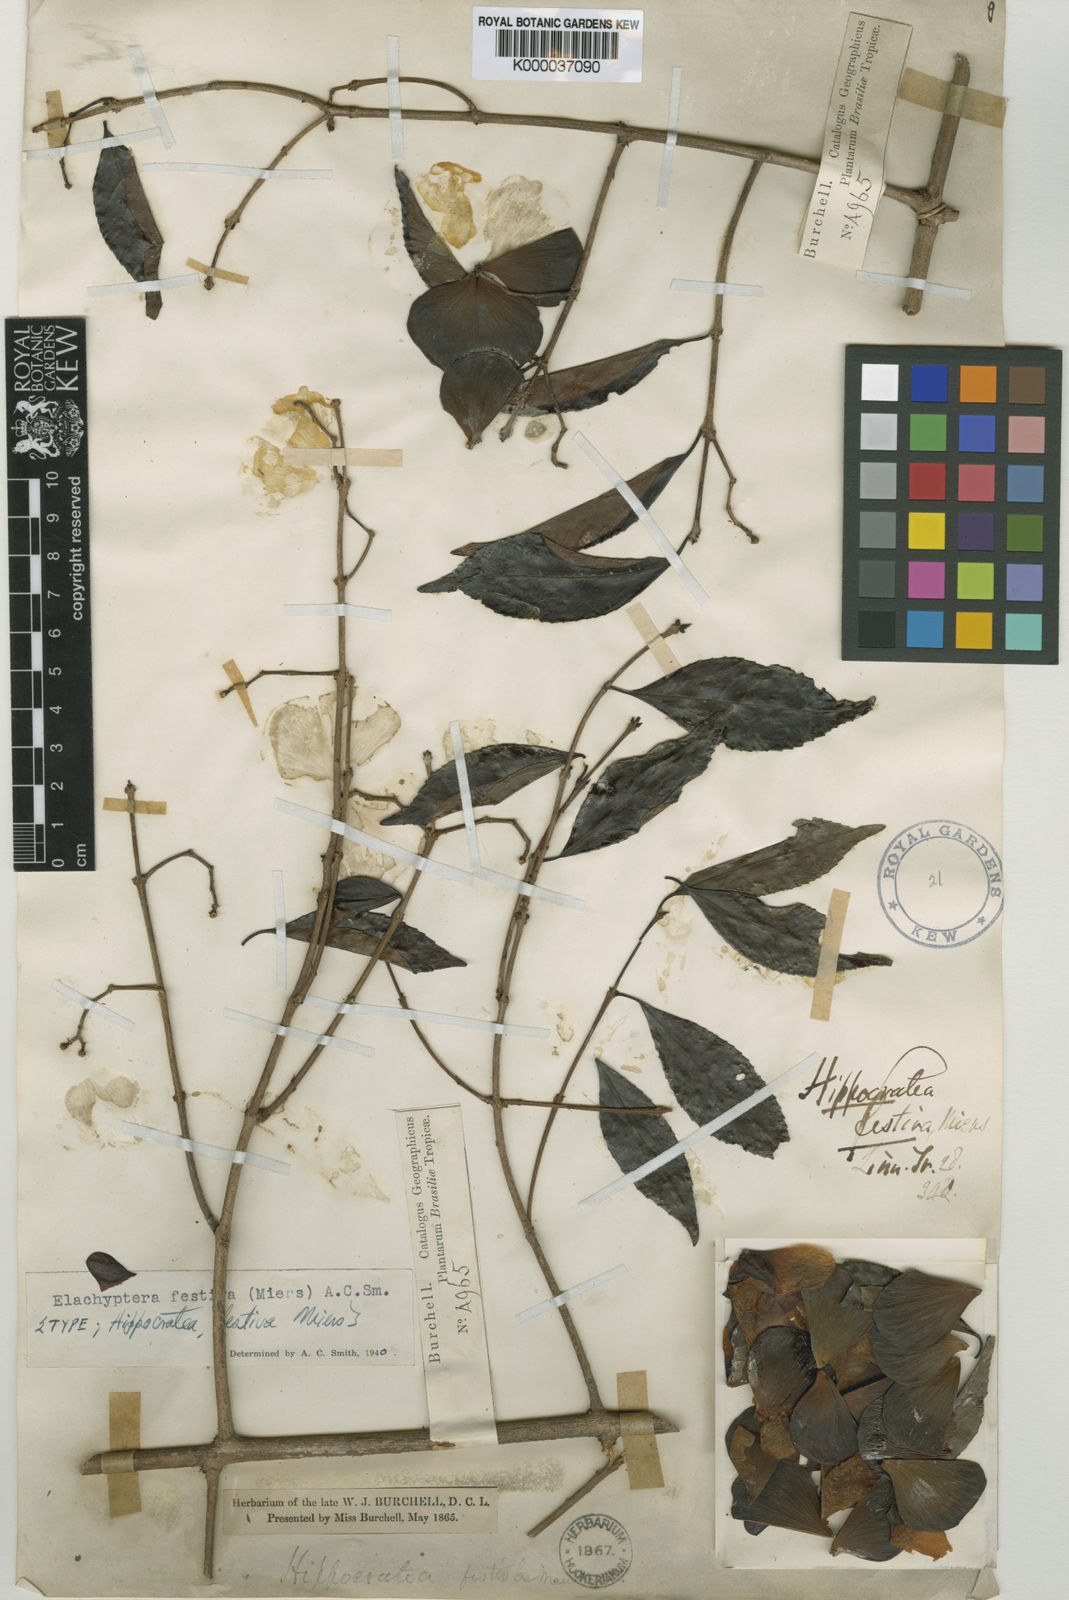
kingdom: Plantae
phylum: Tracheophyta
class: Magnoliopsida
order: Celastrales
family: Celastraceae
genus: Elachyptera
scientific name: Elachyptera festiva
